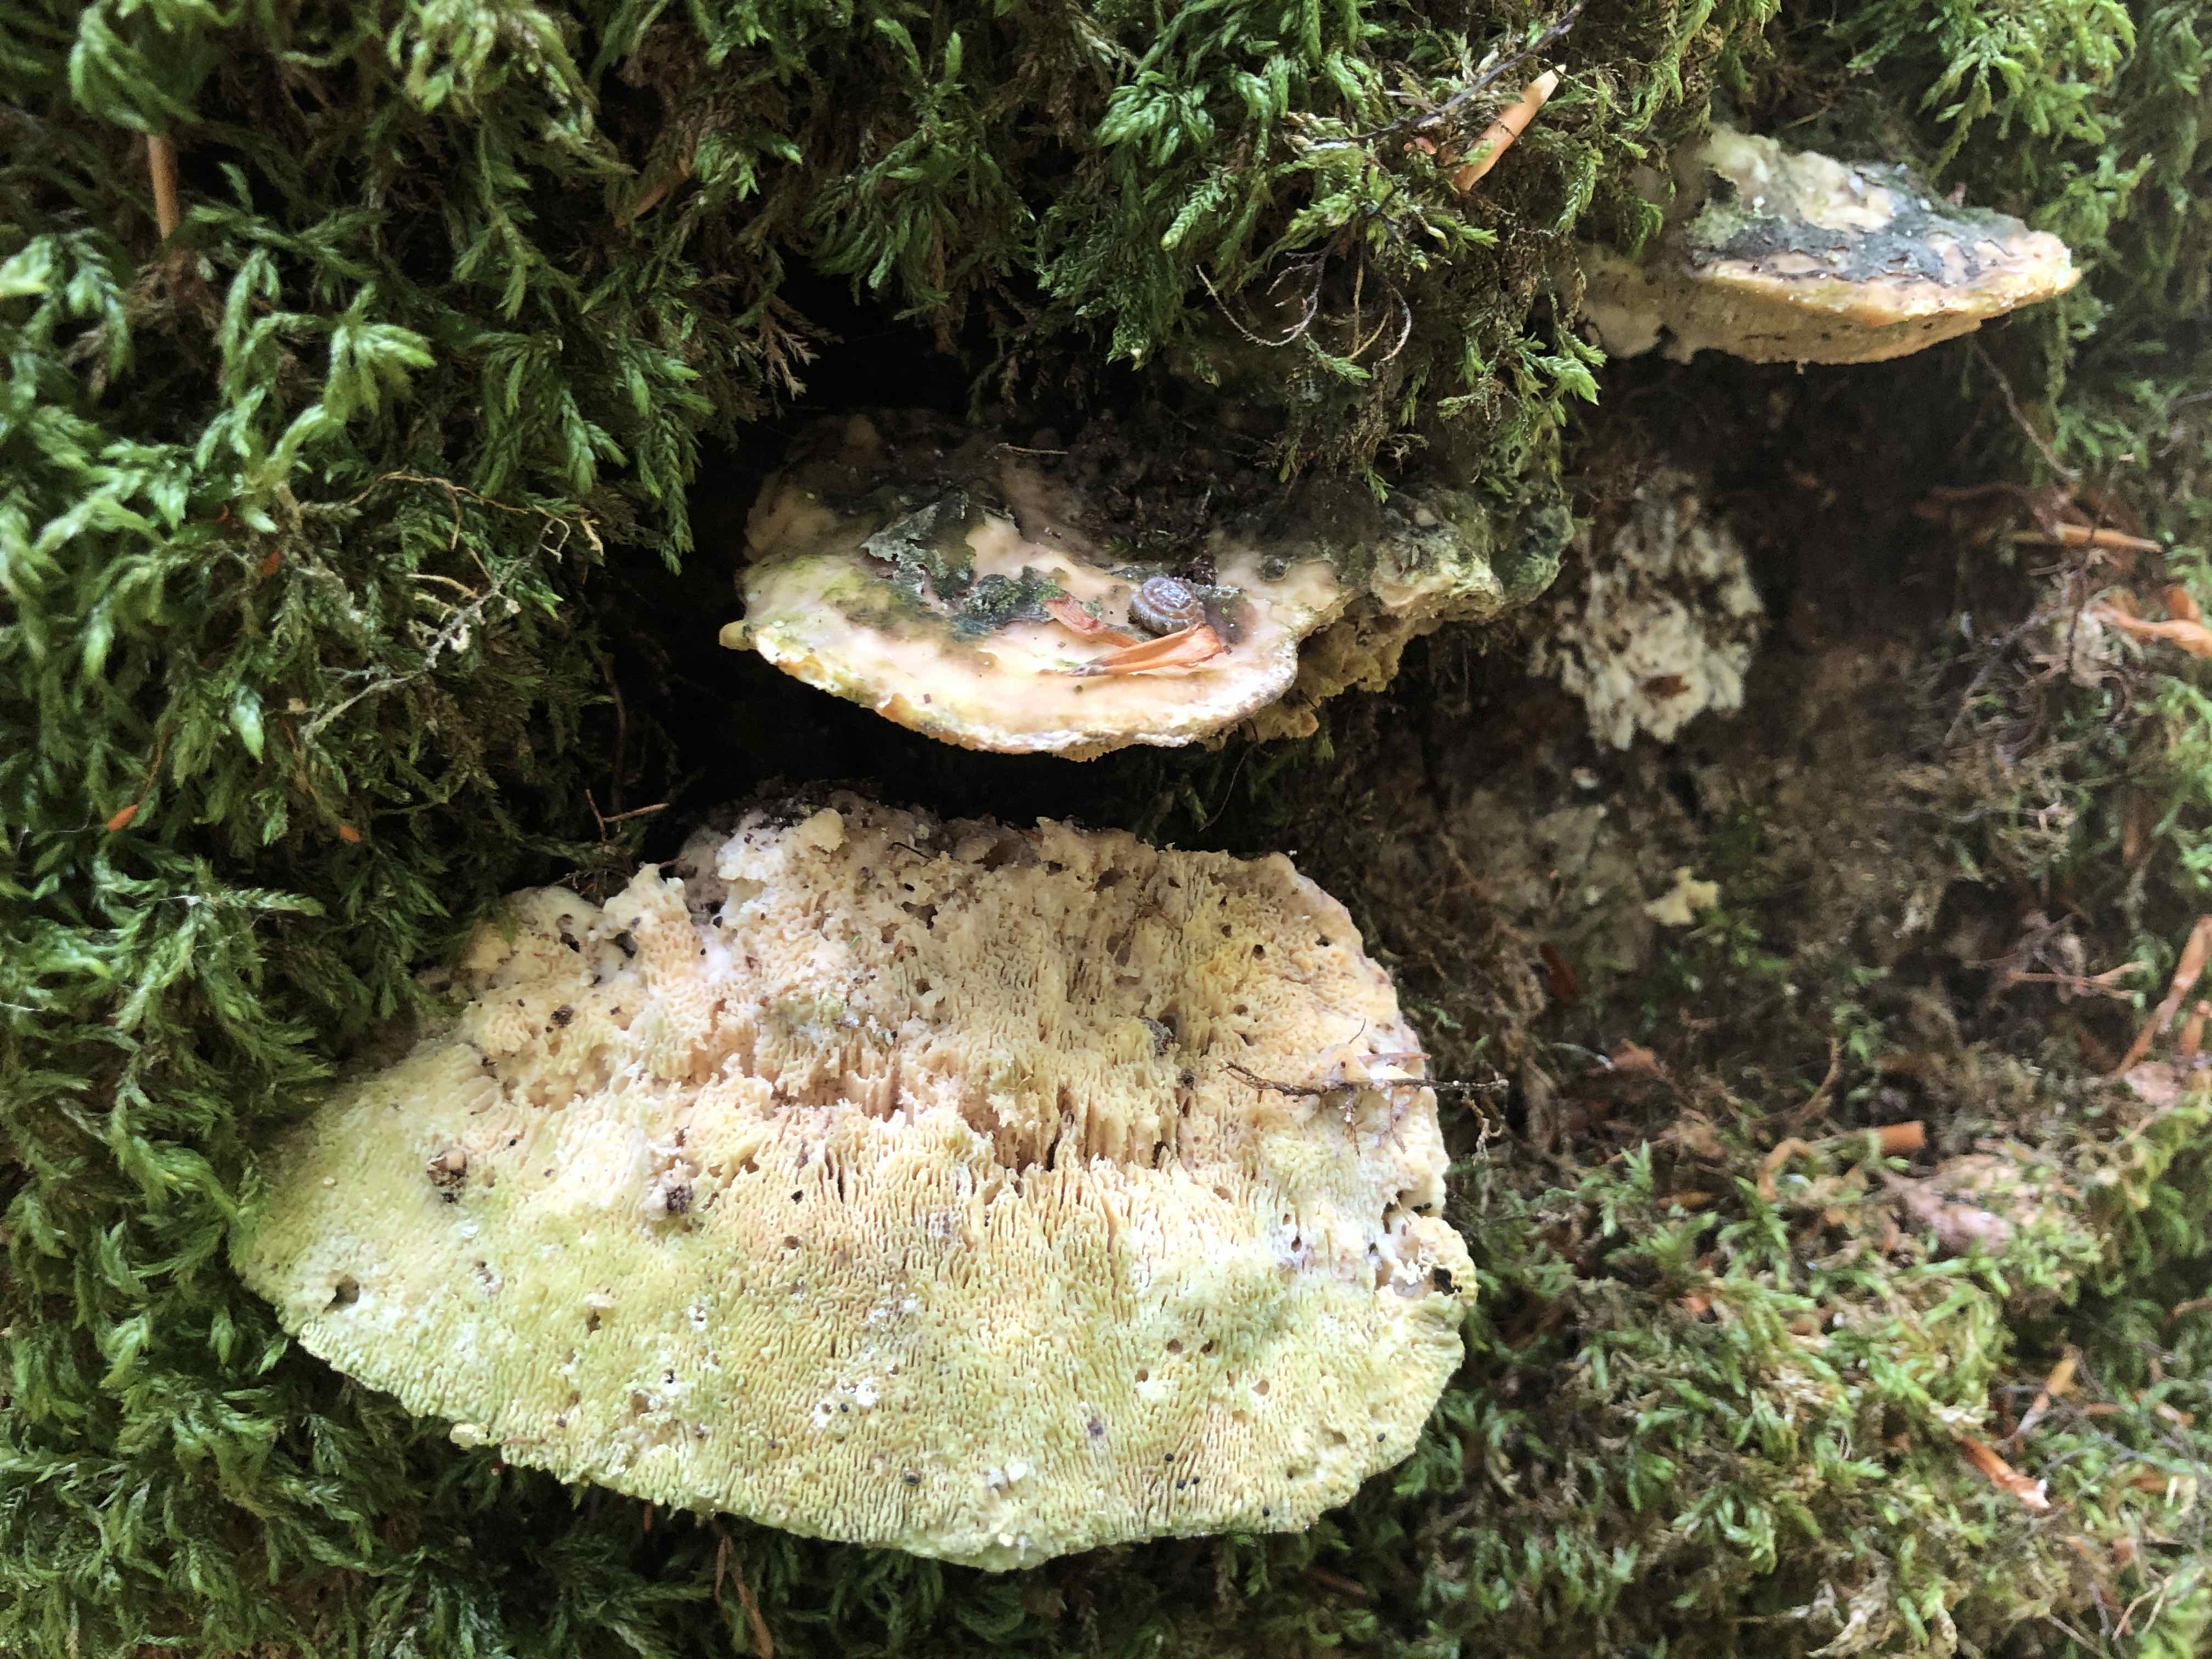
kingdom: Fungi
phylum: Basidiomycota
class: Agaricomycetes
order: Polyporales
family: Polyporaceae
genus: Trametes
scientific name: Trametes gibbosa
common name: puklet læderporesvamp
